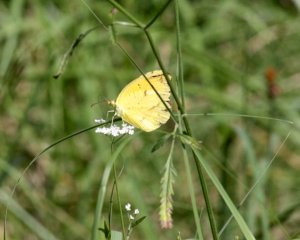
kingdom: Animalia
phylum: Arthropoda
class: Insecta
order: Lepidoptera
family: Pieridae
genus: Abaeis
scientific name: Abaeis nicippe
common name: Sleepy Orange
